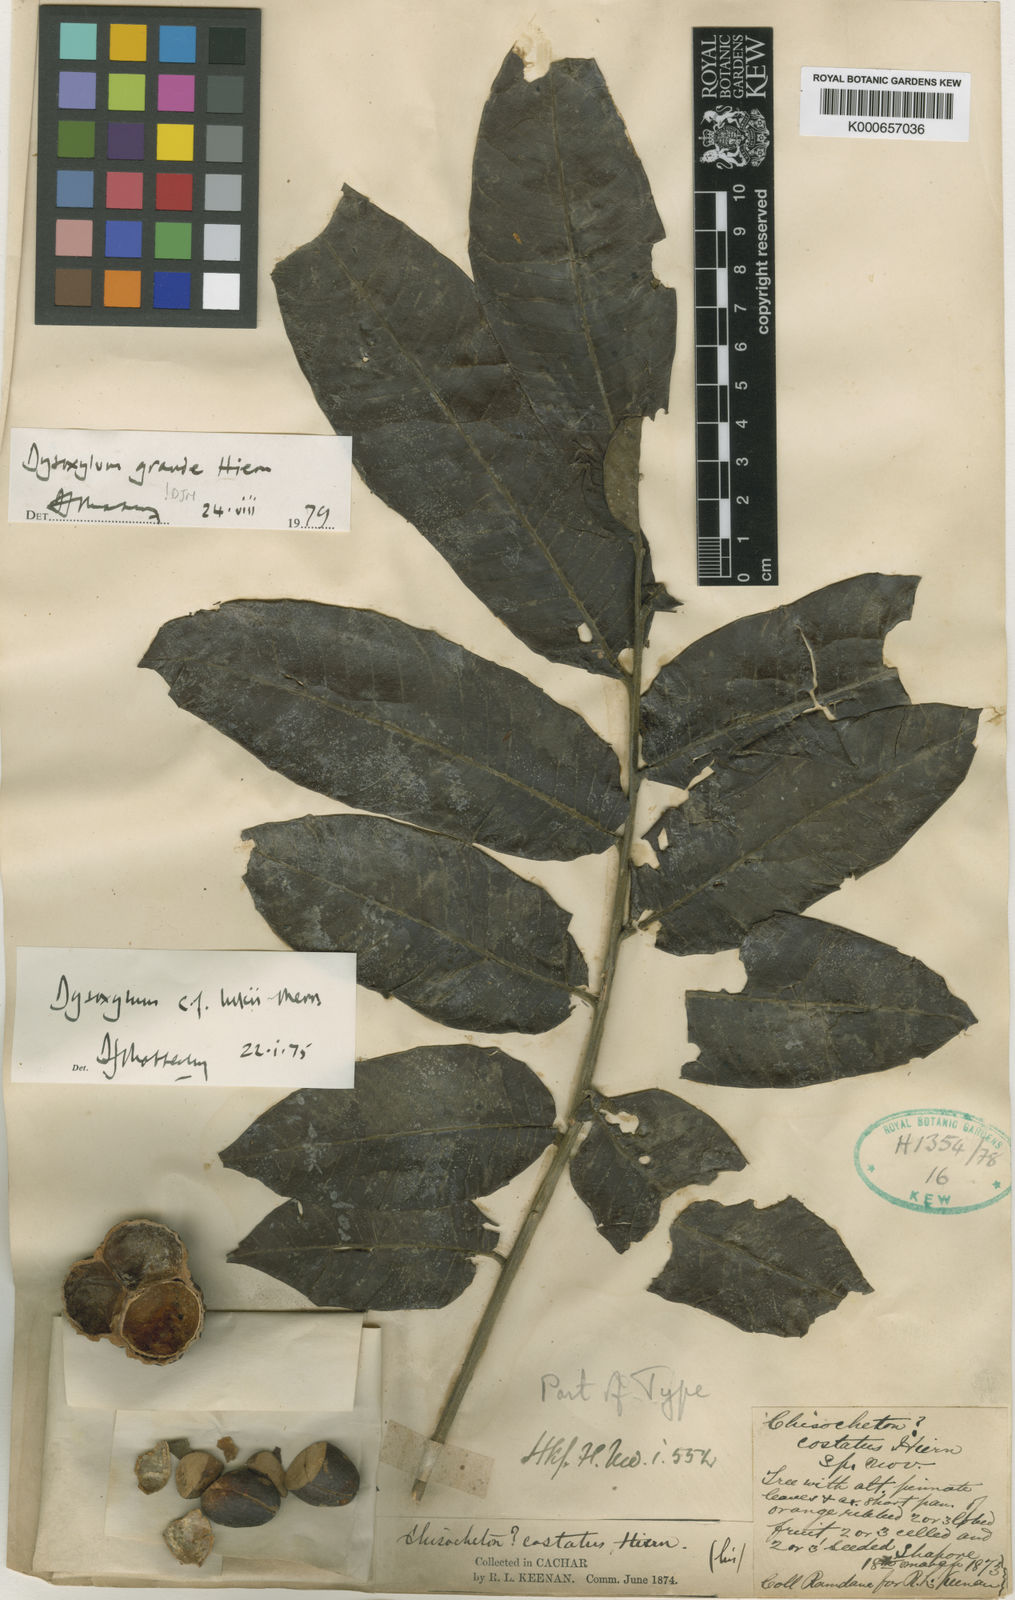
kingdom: Plantae
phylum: Tracheophyta
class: Magnoliopsida
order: Sapindales
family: Meliaceae
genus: Dysoxylum
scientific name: Dysoxylum grande
